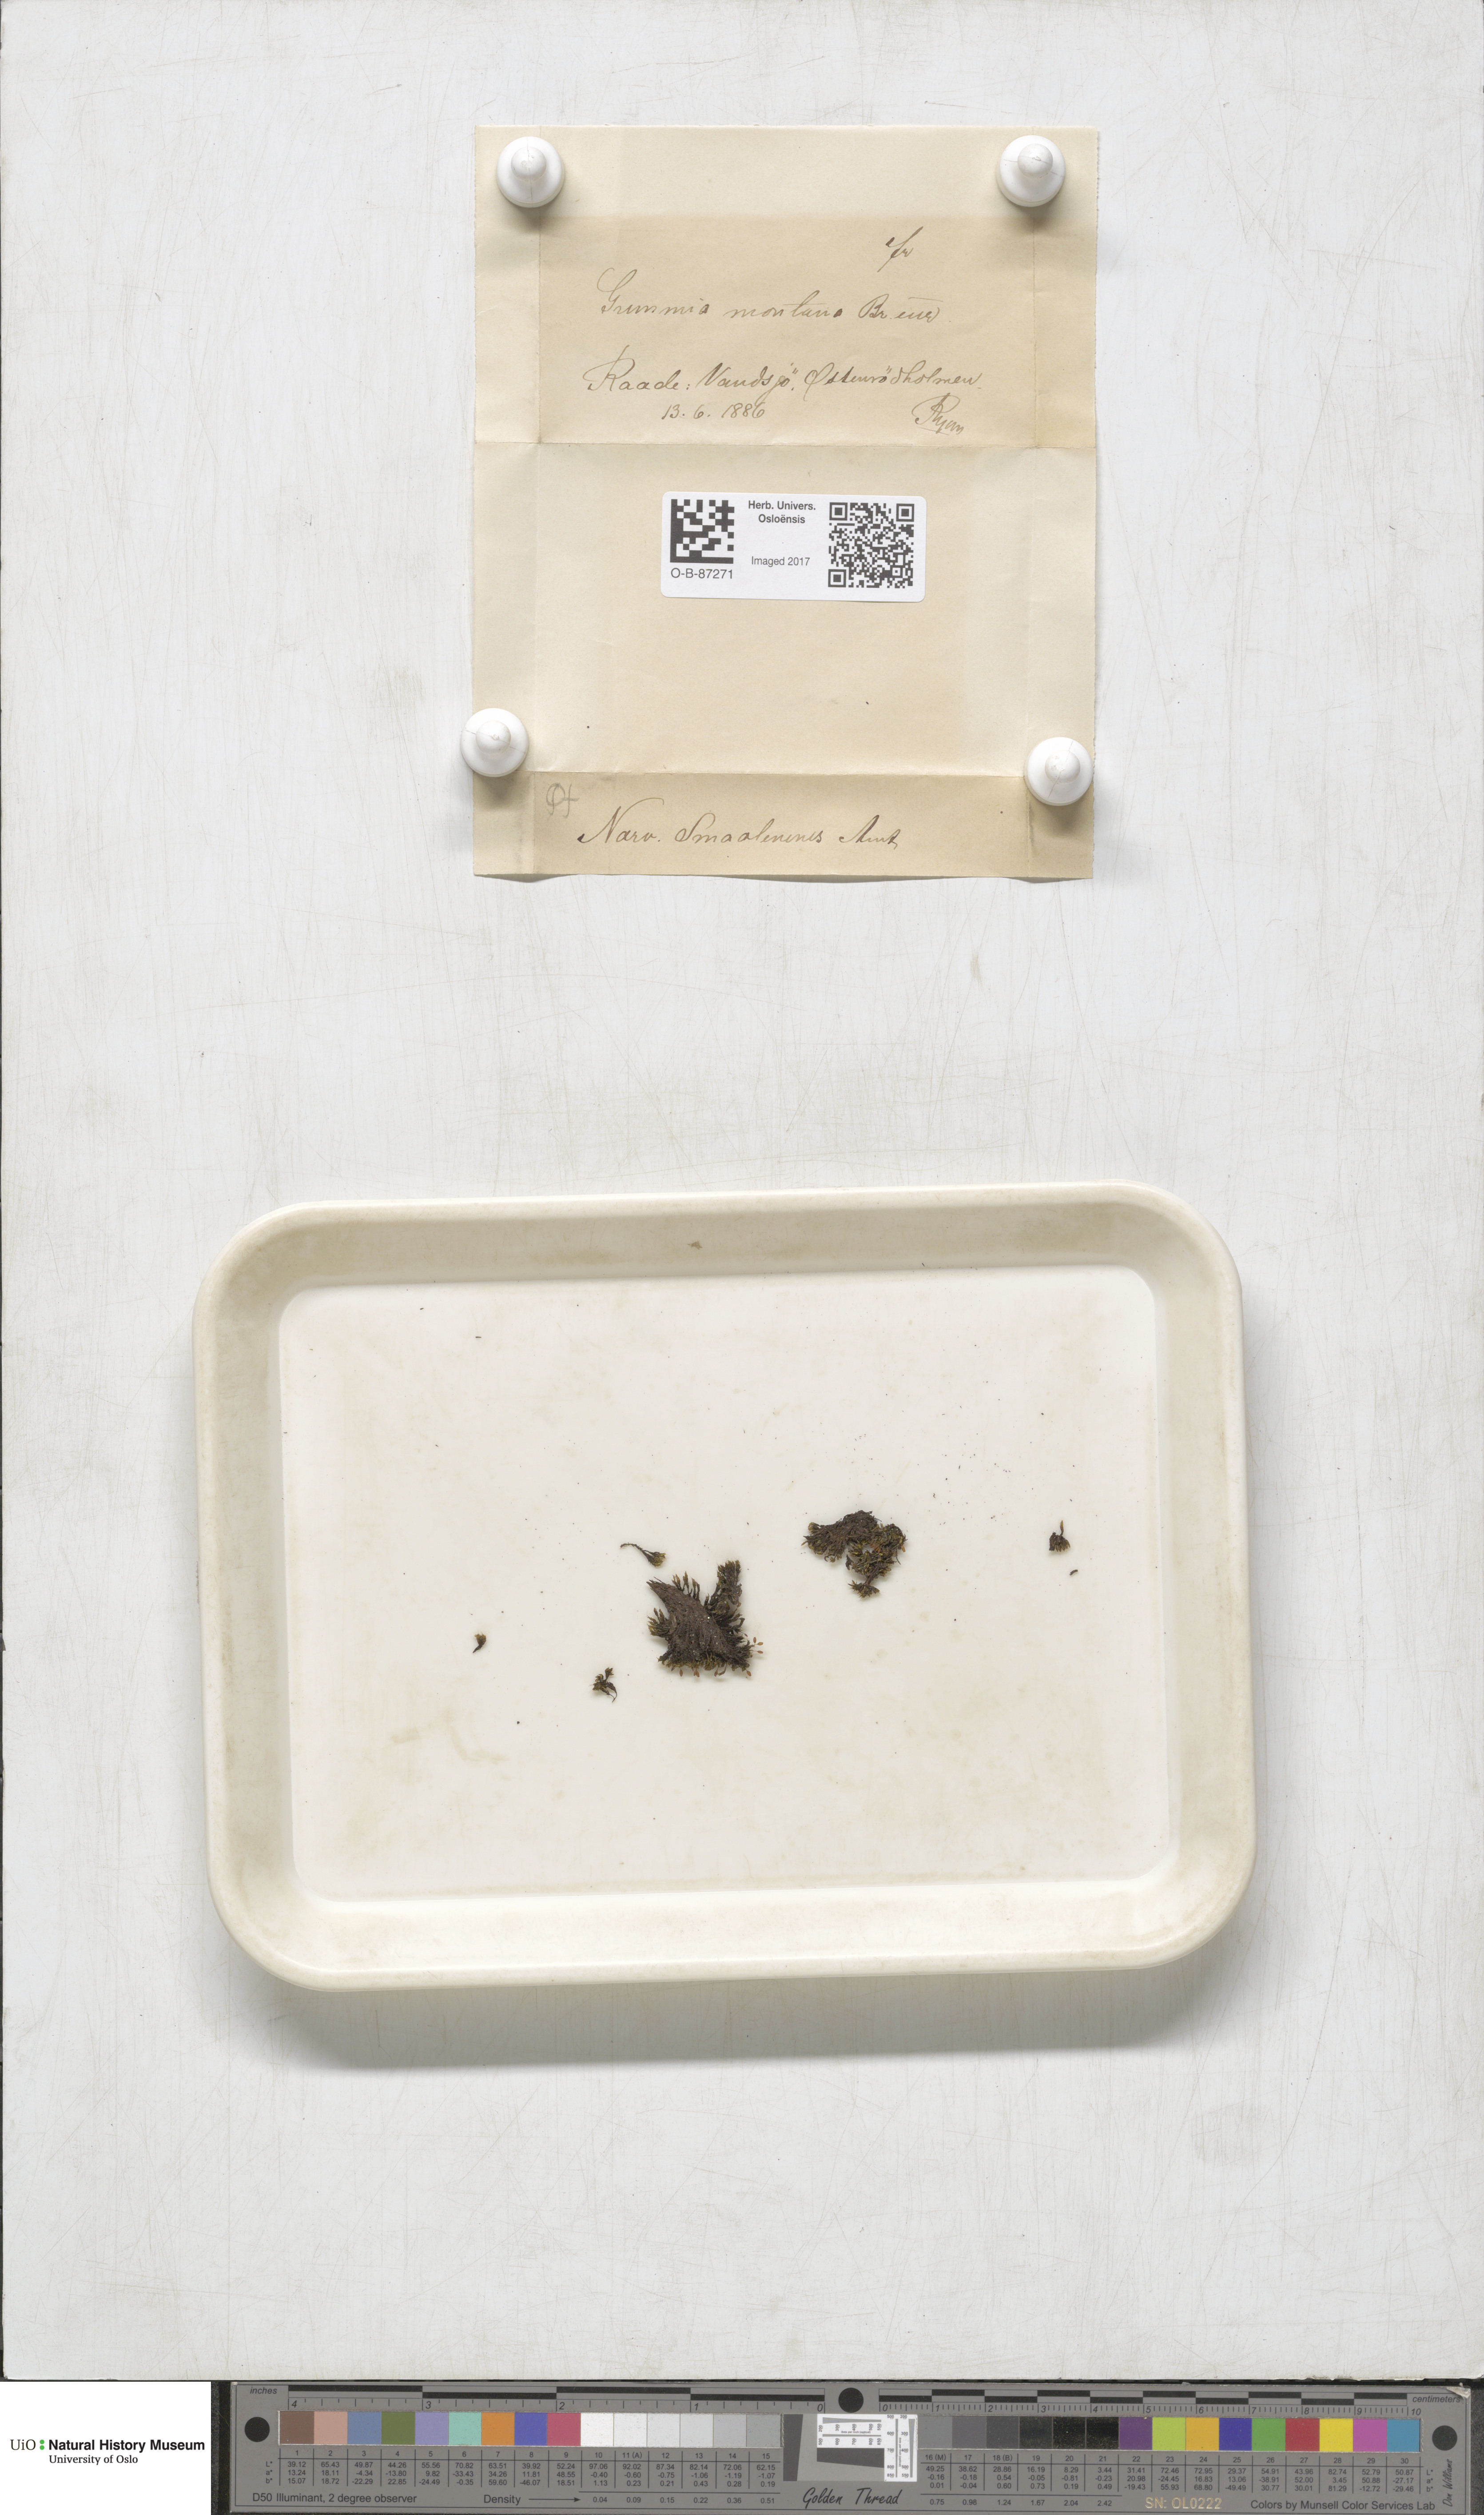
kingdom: Plantae
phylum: Bryophyta
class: Bryopsida
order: Grimmiales
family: Grimmiaceae
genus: Grimmia
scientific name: Grimmia montana
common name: Sun grimmia
